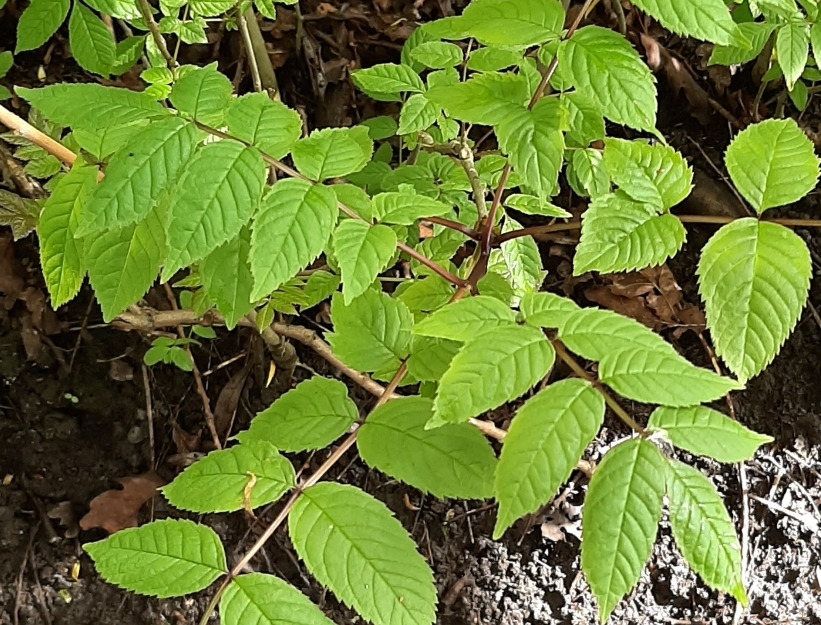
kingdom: Plantae
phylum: Tracheophyta
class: Magnoliopsida
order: Lamiales
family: Oleaceae
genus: Fraxinus
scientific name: Fraxinus excelsior
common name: Ask
